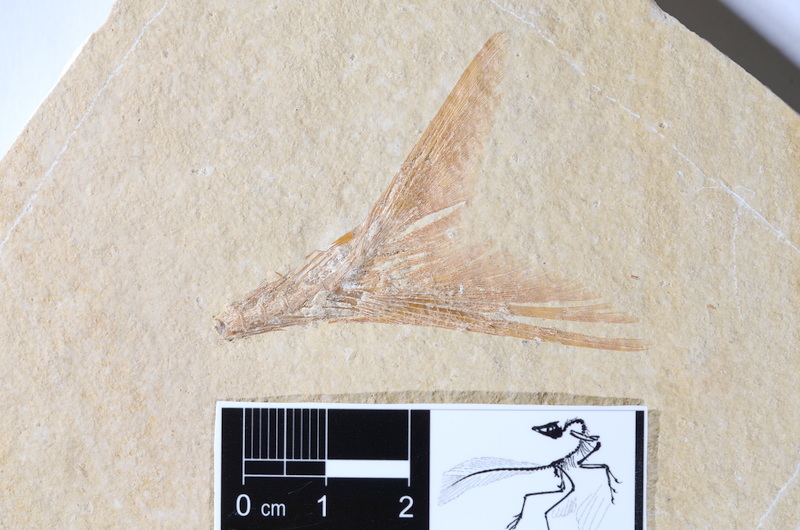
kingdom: Animalia
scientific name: Animalia
